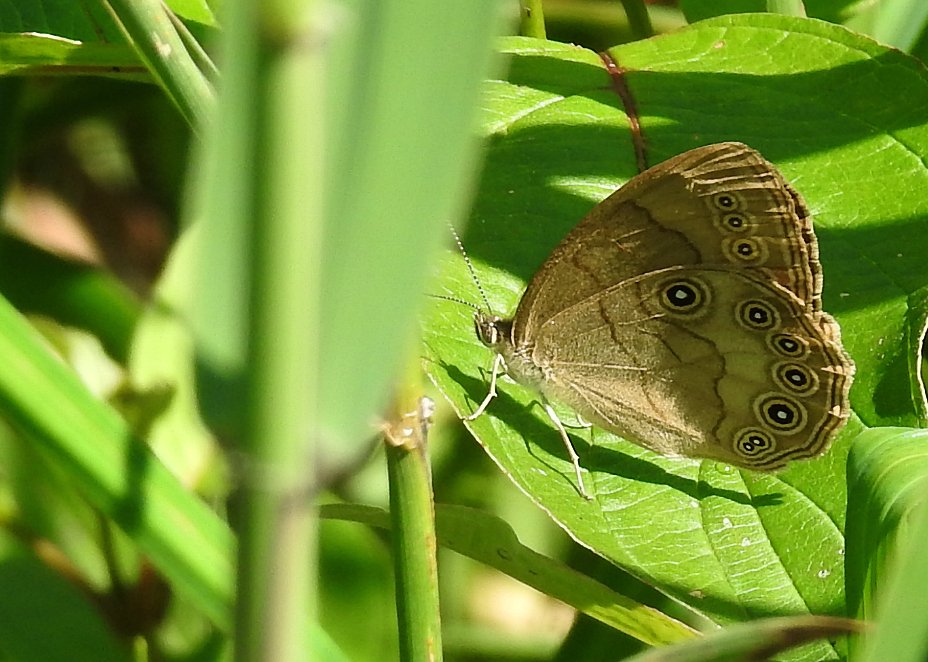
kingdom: Animalia
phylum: Arthropoda
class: Insecta
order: Lepidoptera
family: Nymphalidae
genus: Lethe
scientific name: Lethe eurydice
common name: Appalachian Eyed Brown
